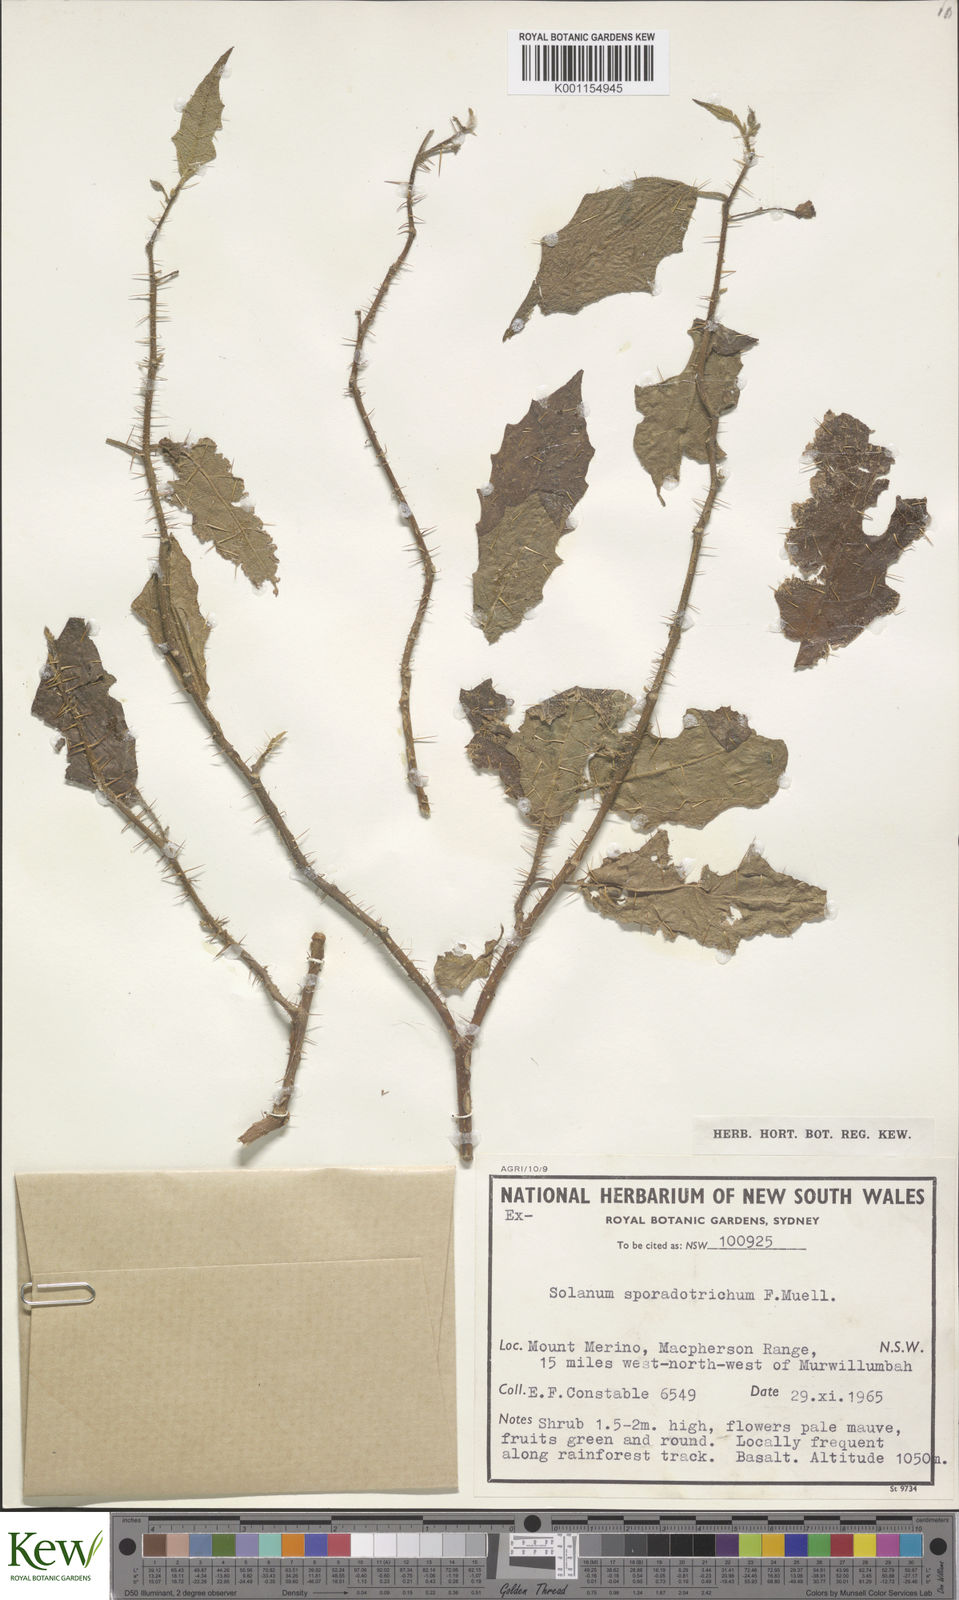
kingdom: Plantae
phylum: Tracheophyta
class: Magnoliopsida
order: Solanales
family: Solanaceae
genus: Solanum
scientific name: Solanum sporadotrichum
